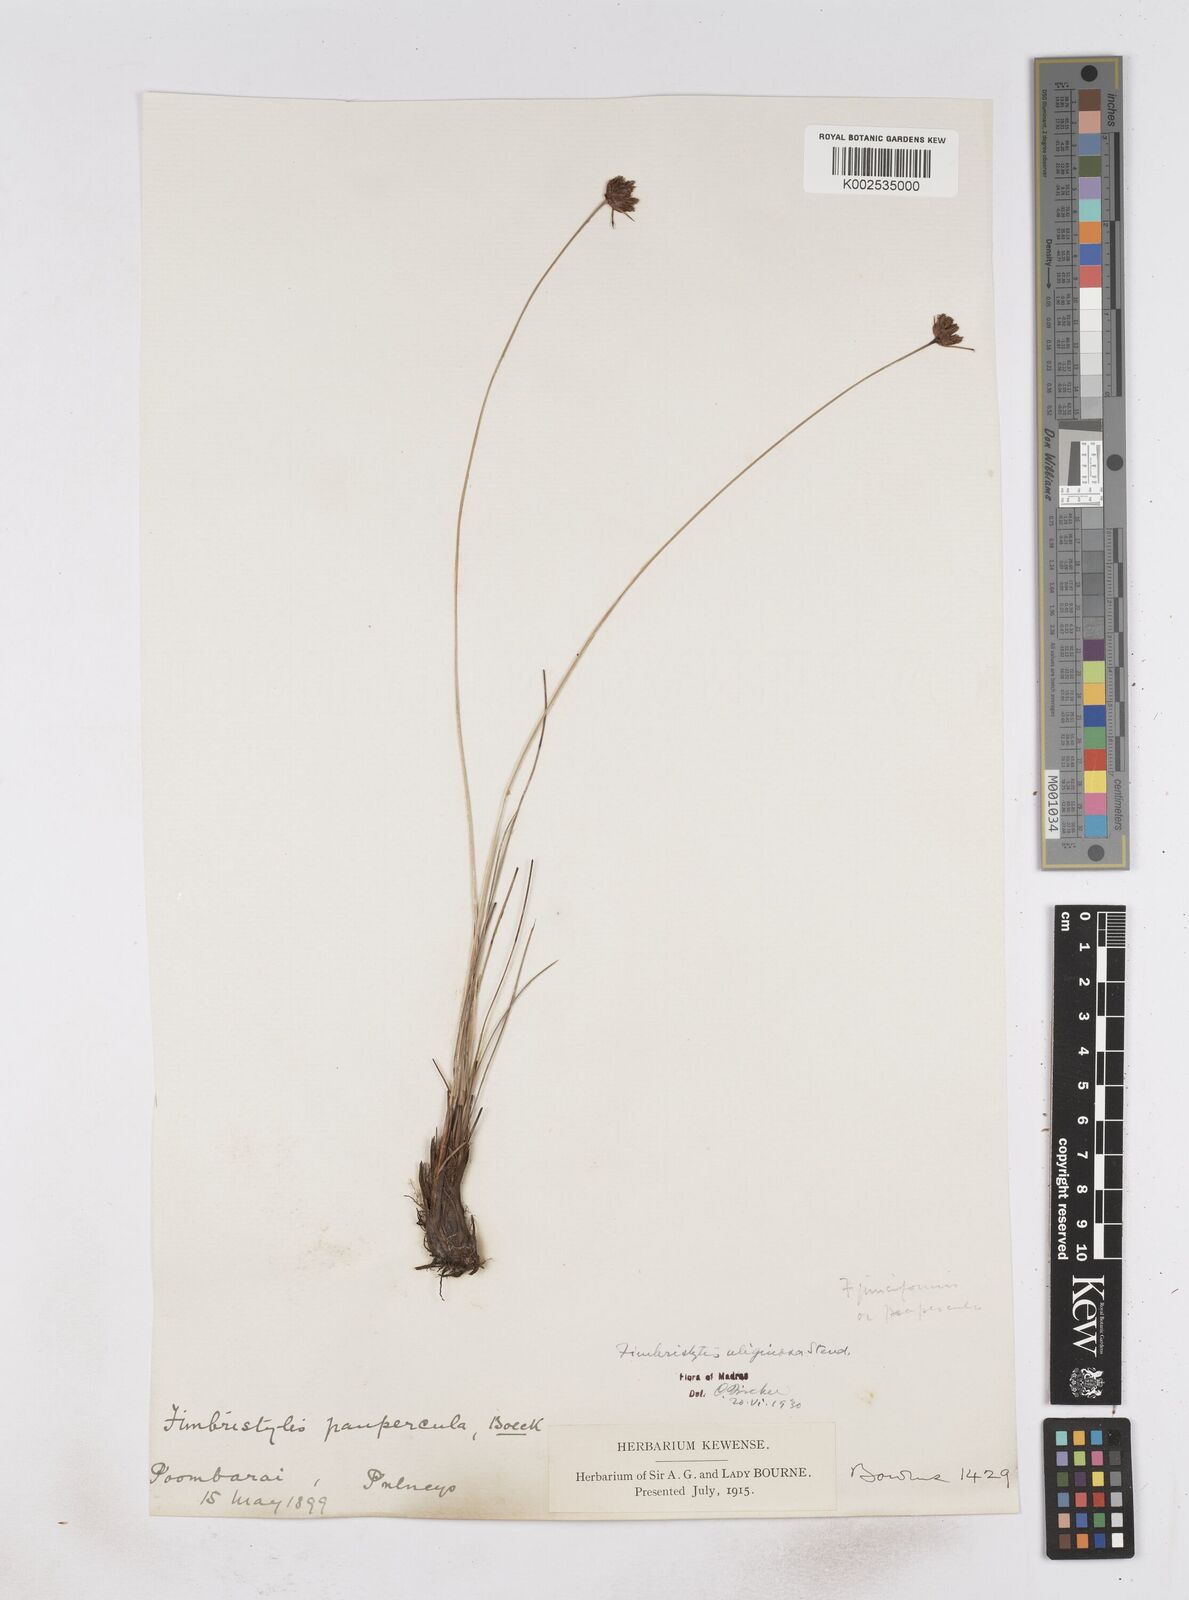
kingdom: Plantae
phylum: Tracheophyta
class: Liliopsida
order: Poales
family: Cyperaceae
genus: Fimbristylis
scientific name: Fimbristylis uliginosa
